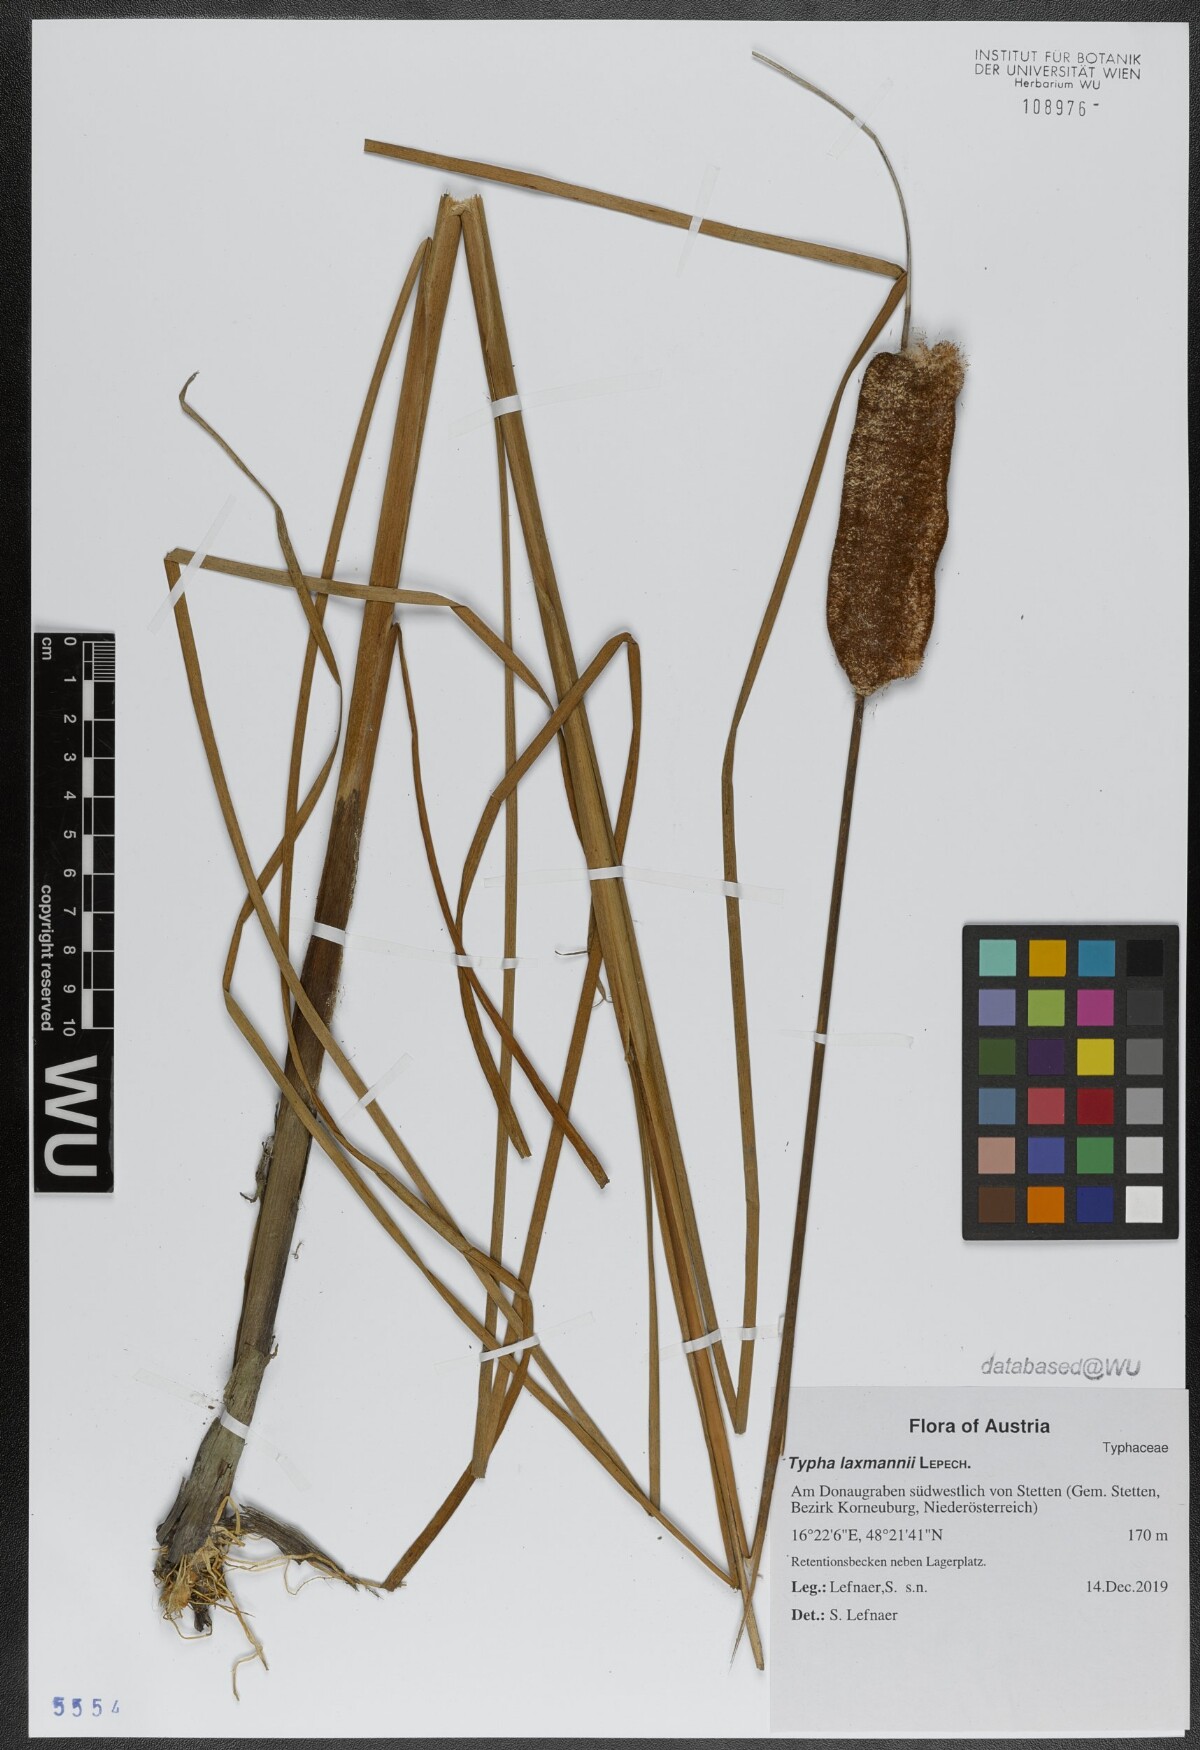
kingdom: Plantae
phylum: Tracheophyta
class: Liliopsida
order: Poales
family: Typhaceae
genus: Typha
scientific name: Typha laxmannii
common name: Laxman’s bulrush
